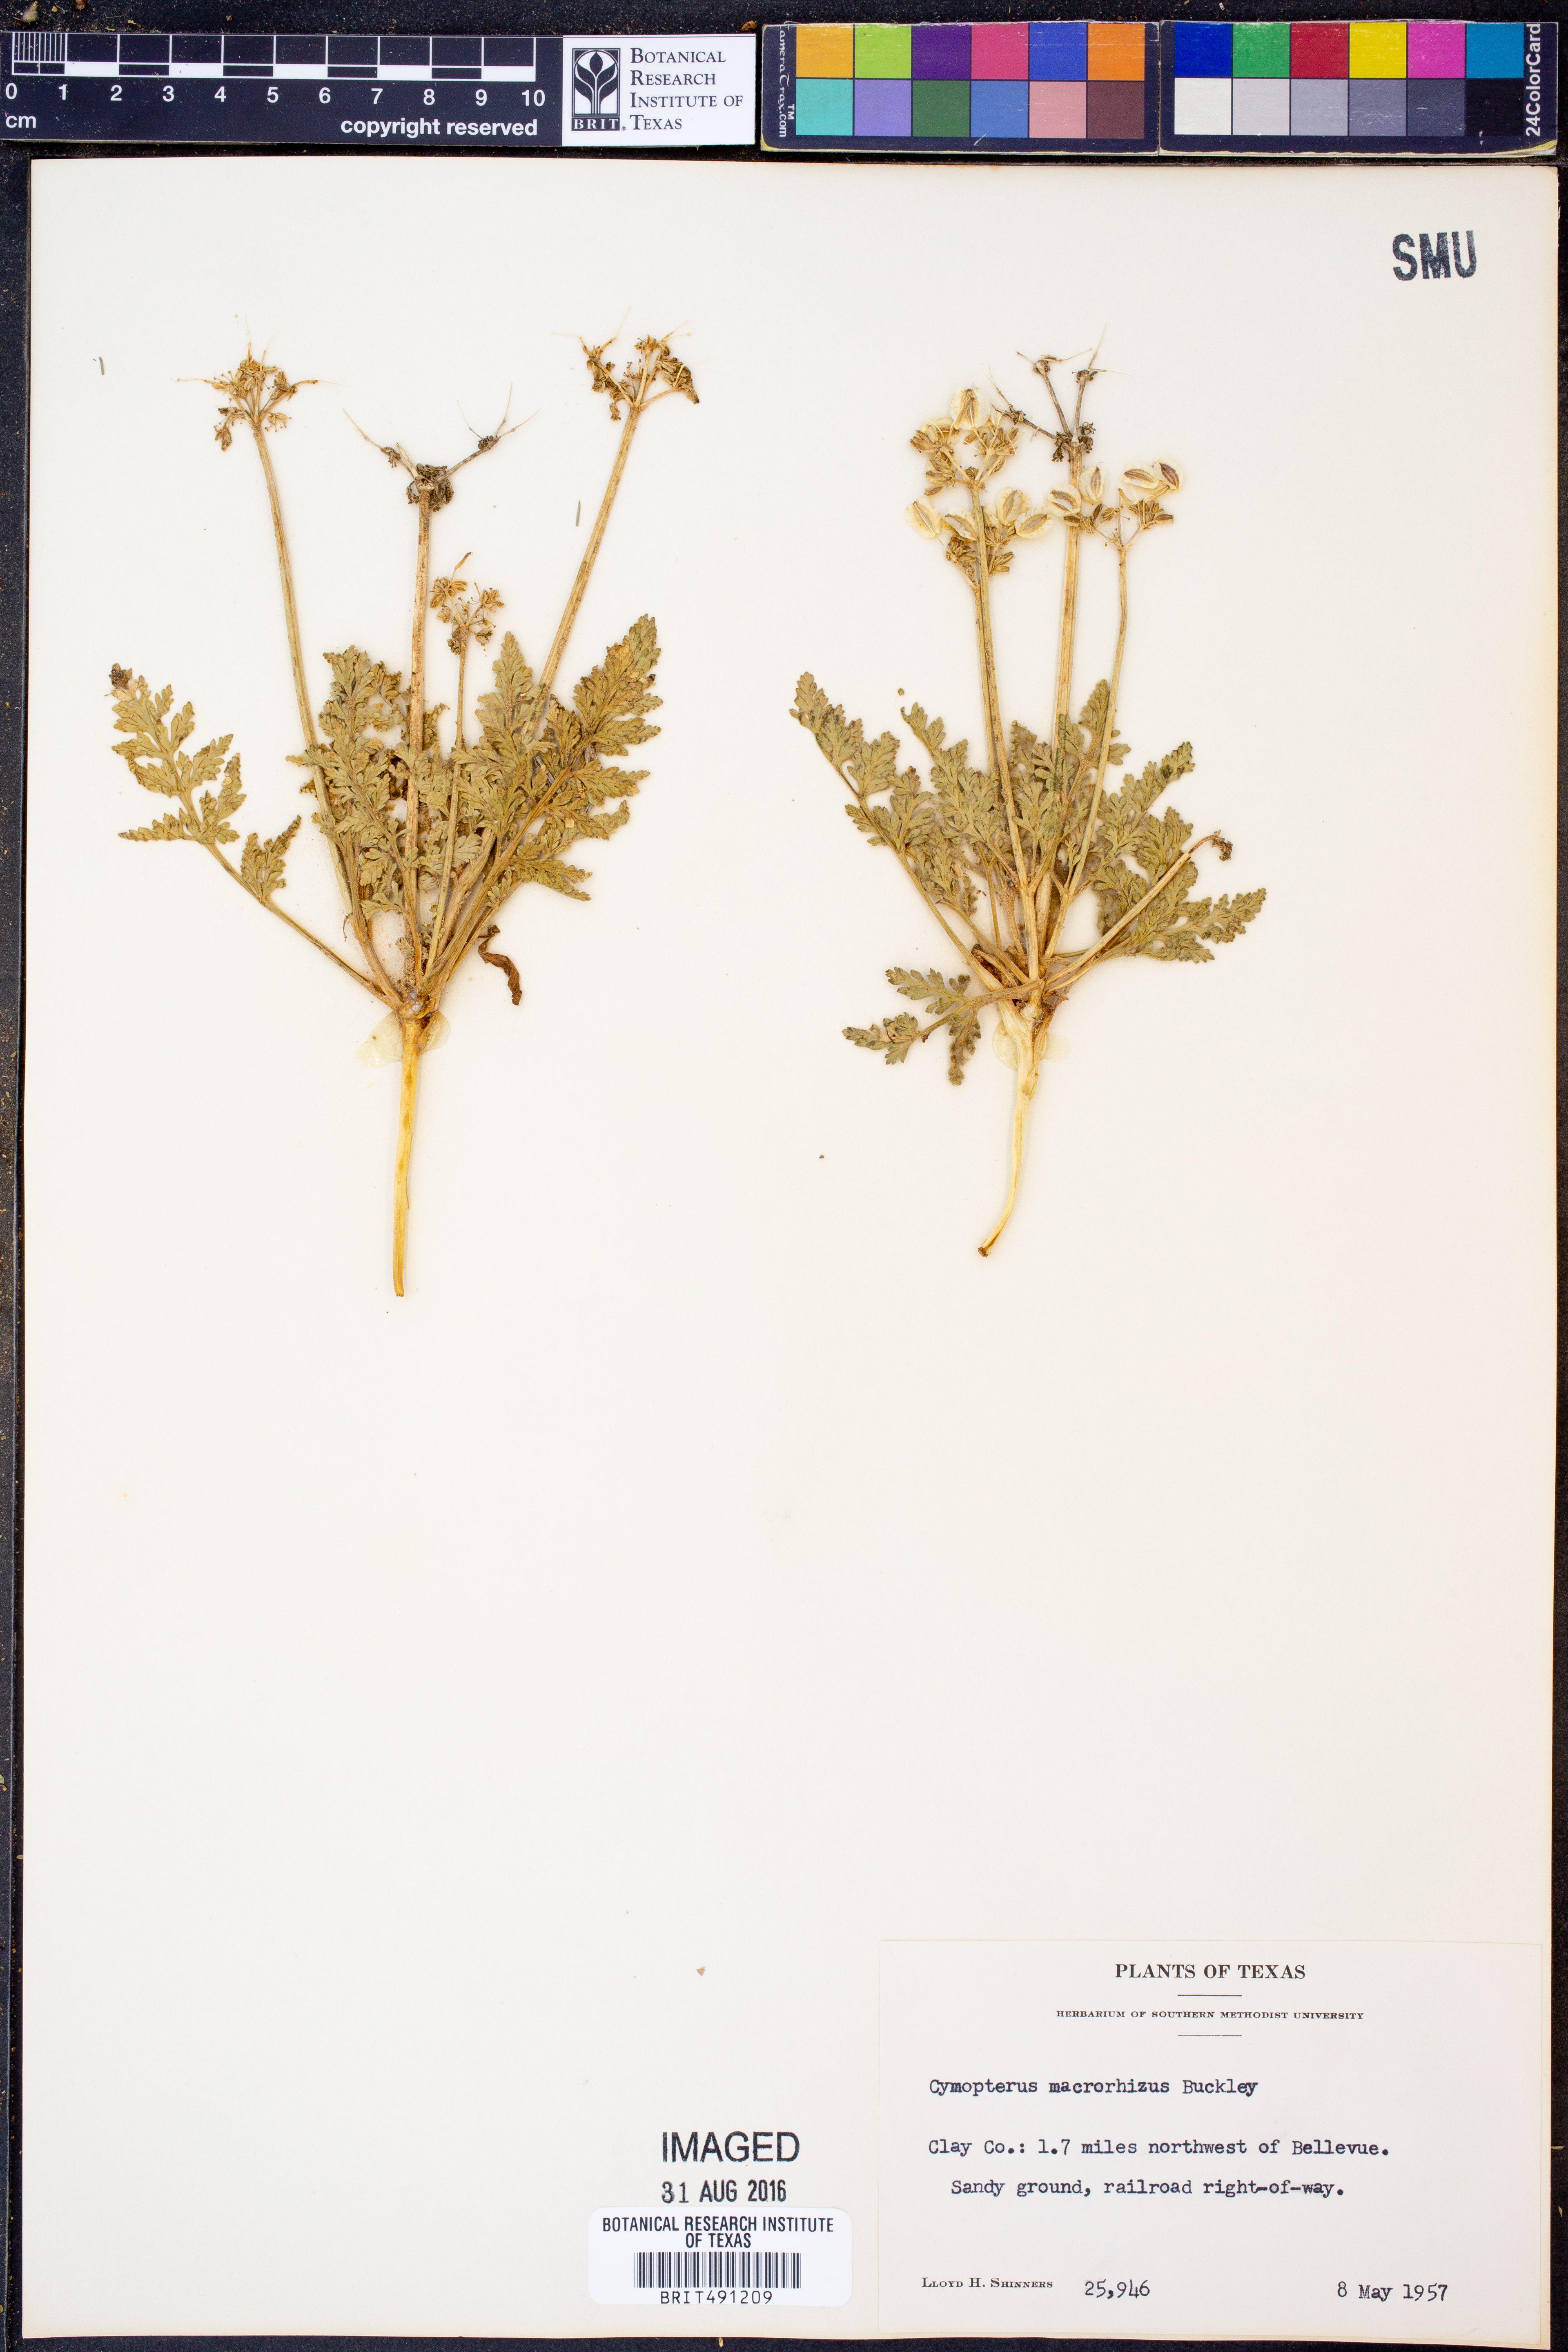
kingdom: Plantae
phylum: Tracheophyta
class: Magnoliopsida
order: Apiales
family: Apiaceae
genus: Vesper
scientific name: Vesper macrorhizus
